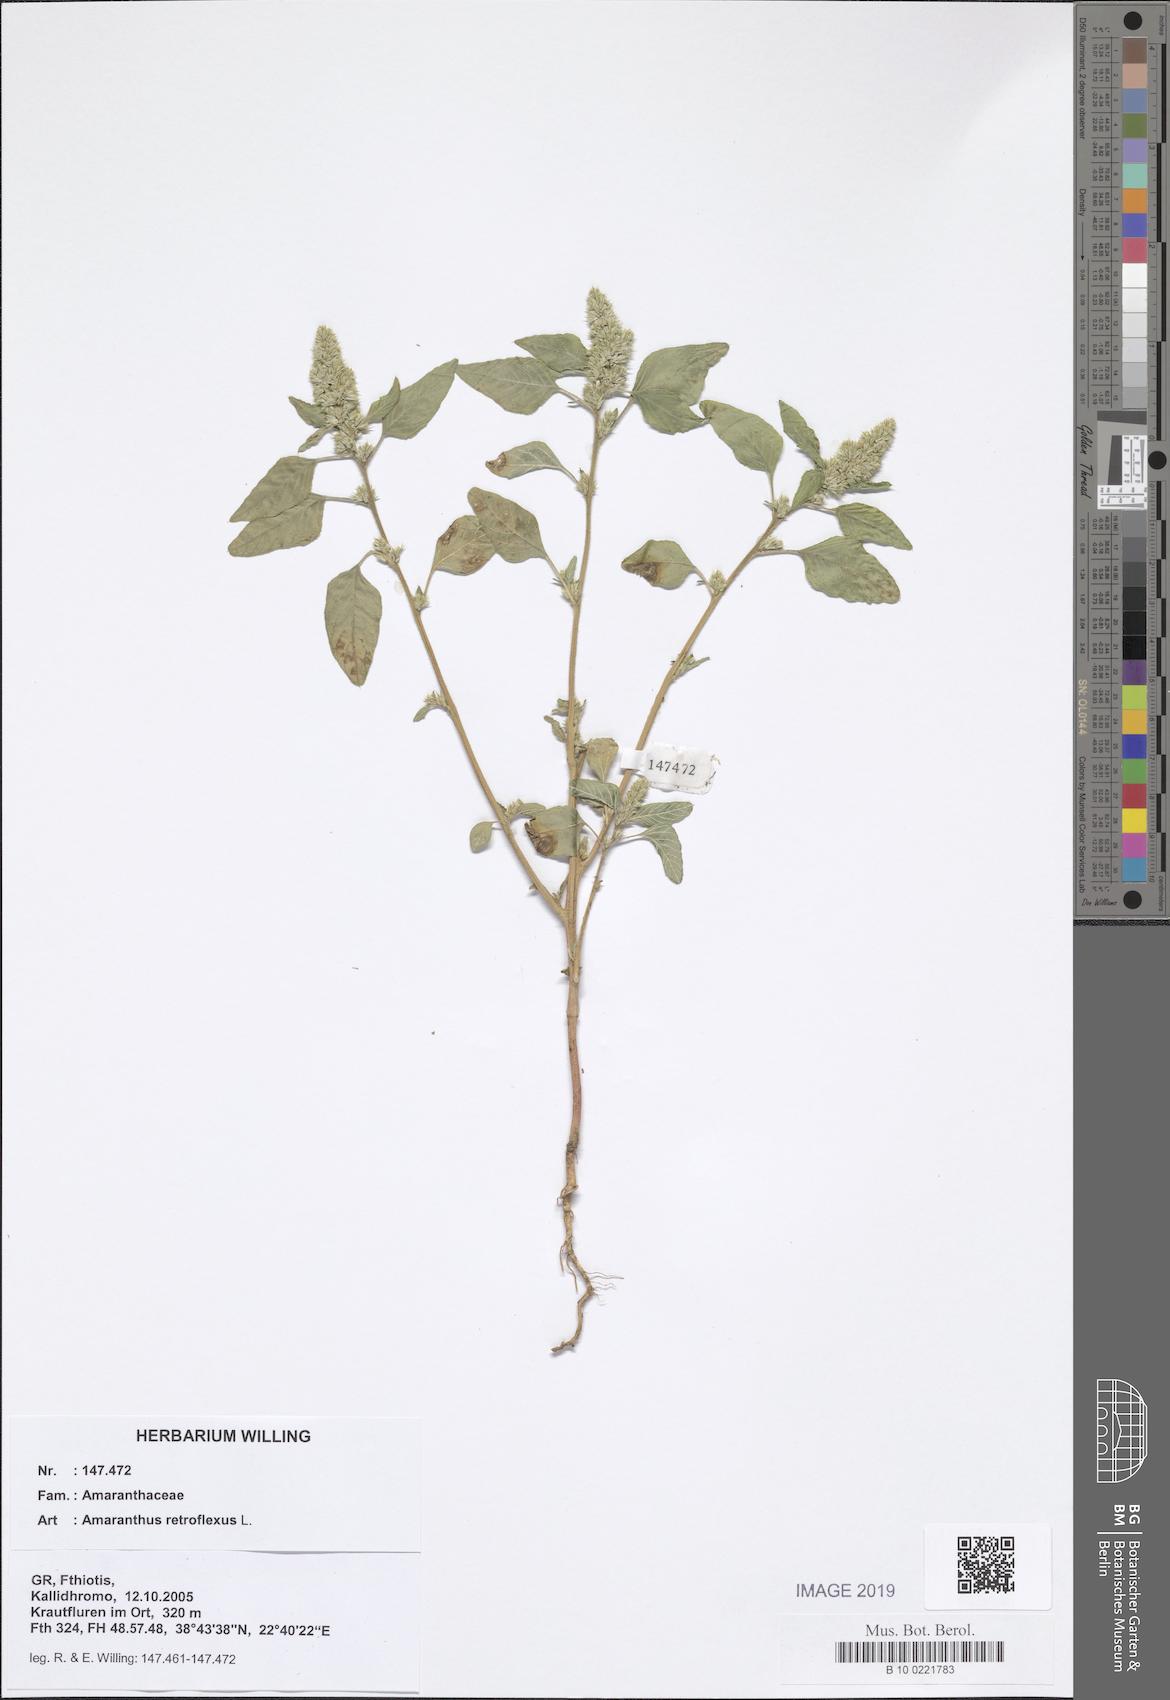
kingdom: Plantae
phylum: Tracheophyta
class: Magnoliopsida
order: Caryophyllales
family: Amaranthaceae
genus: Amaranthus
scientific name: Amaranthus retroflexus
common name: Redroot amaranth
